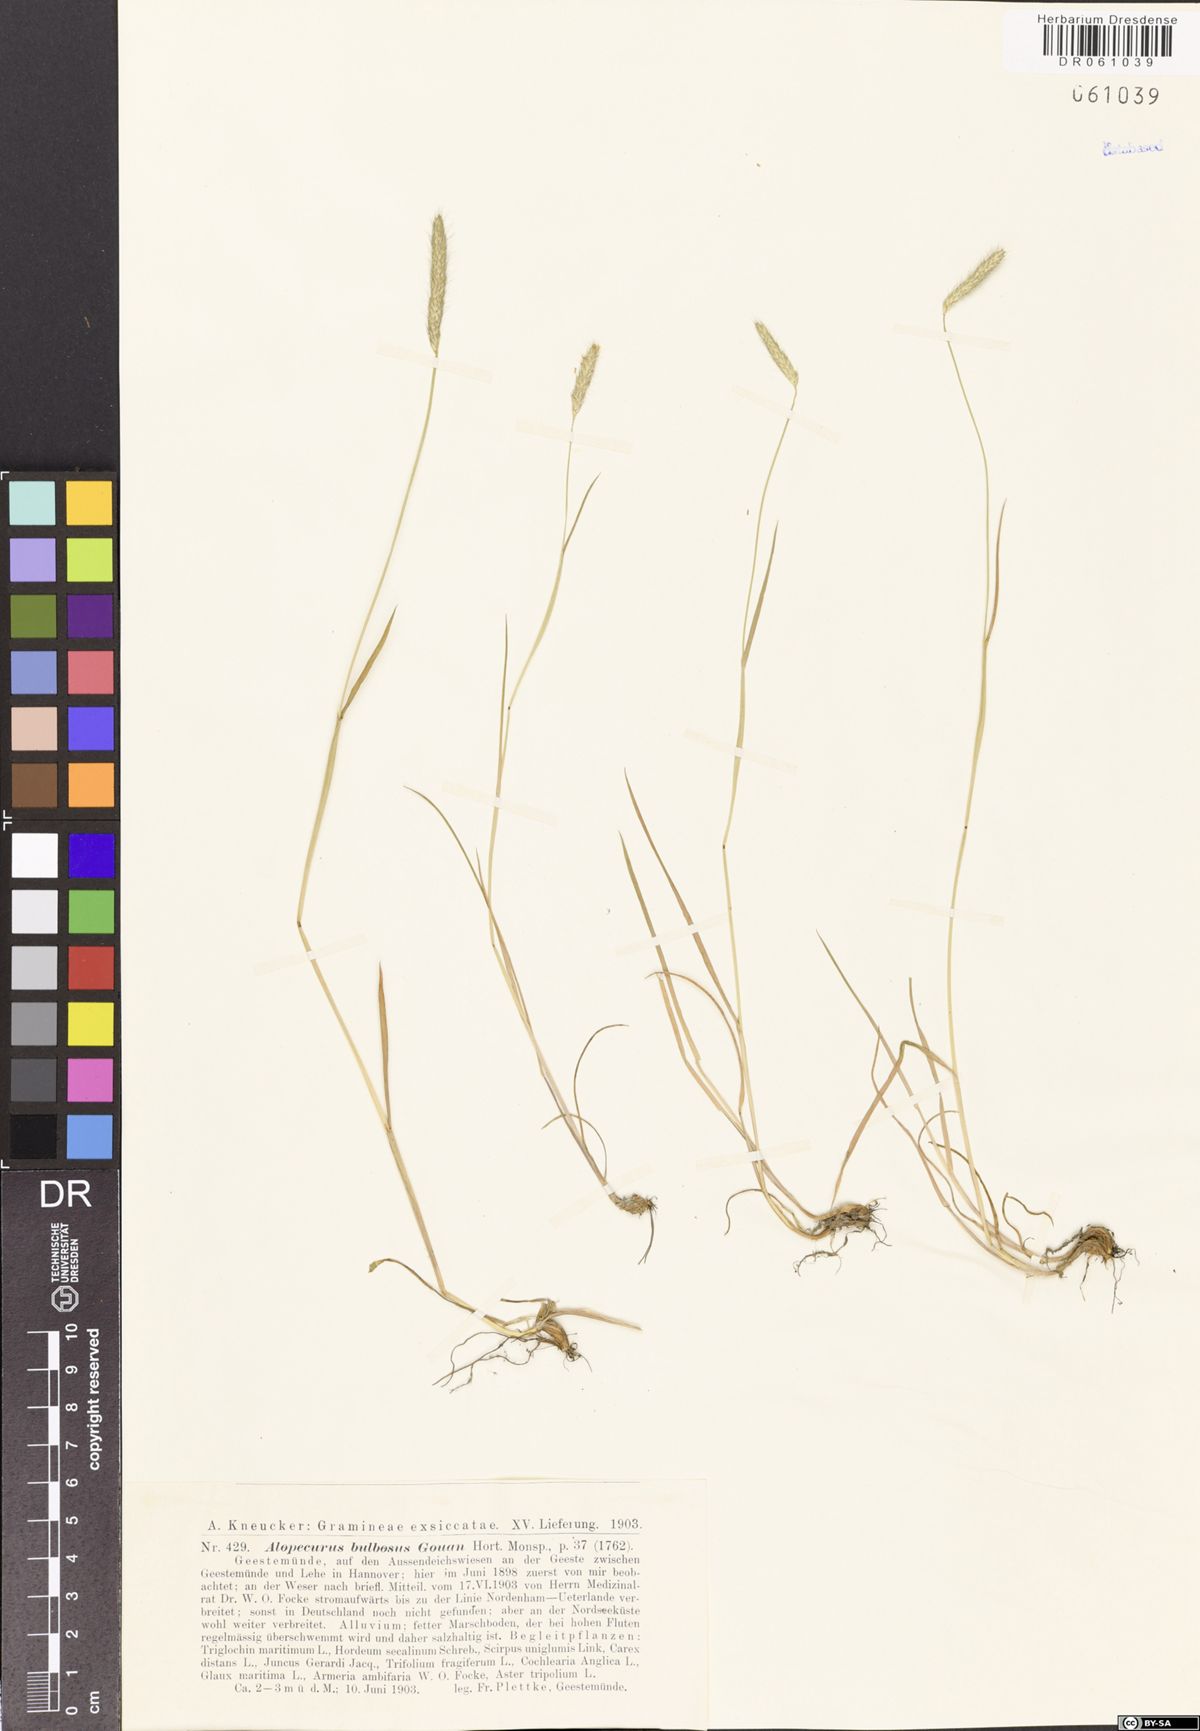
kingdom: Plantae
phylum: Tracheophyta
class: Liliopsida
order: Poales
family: Poaceae
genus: Alopecurus
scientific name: Alopecurus bulbosus
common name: Bulbous foxtail
